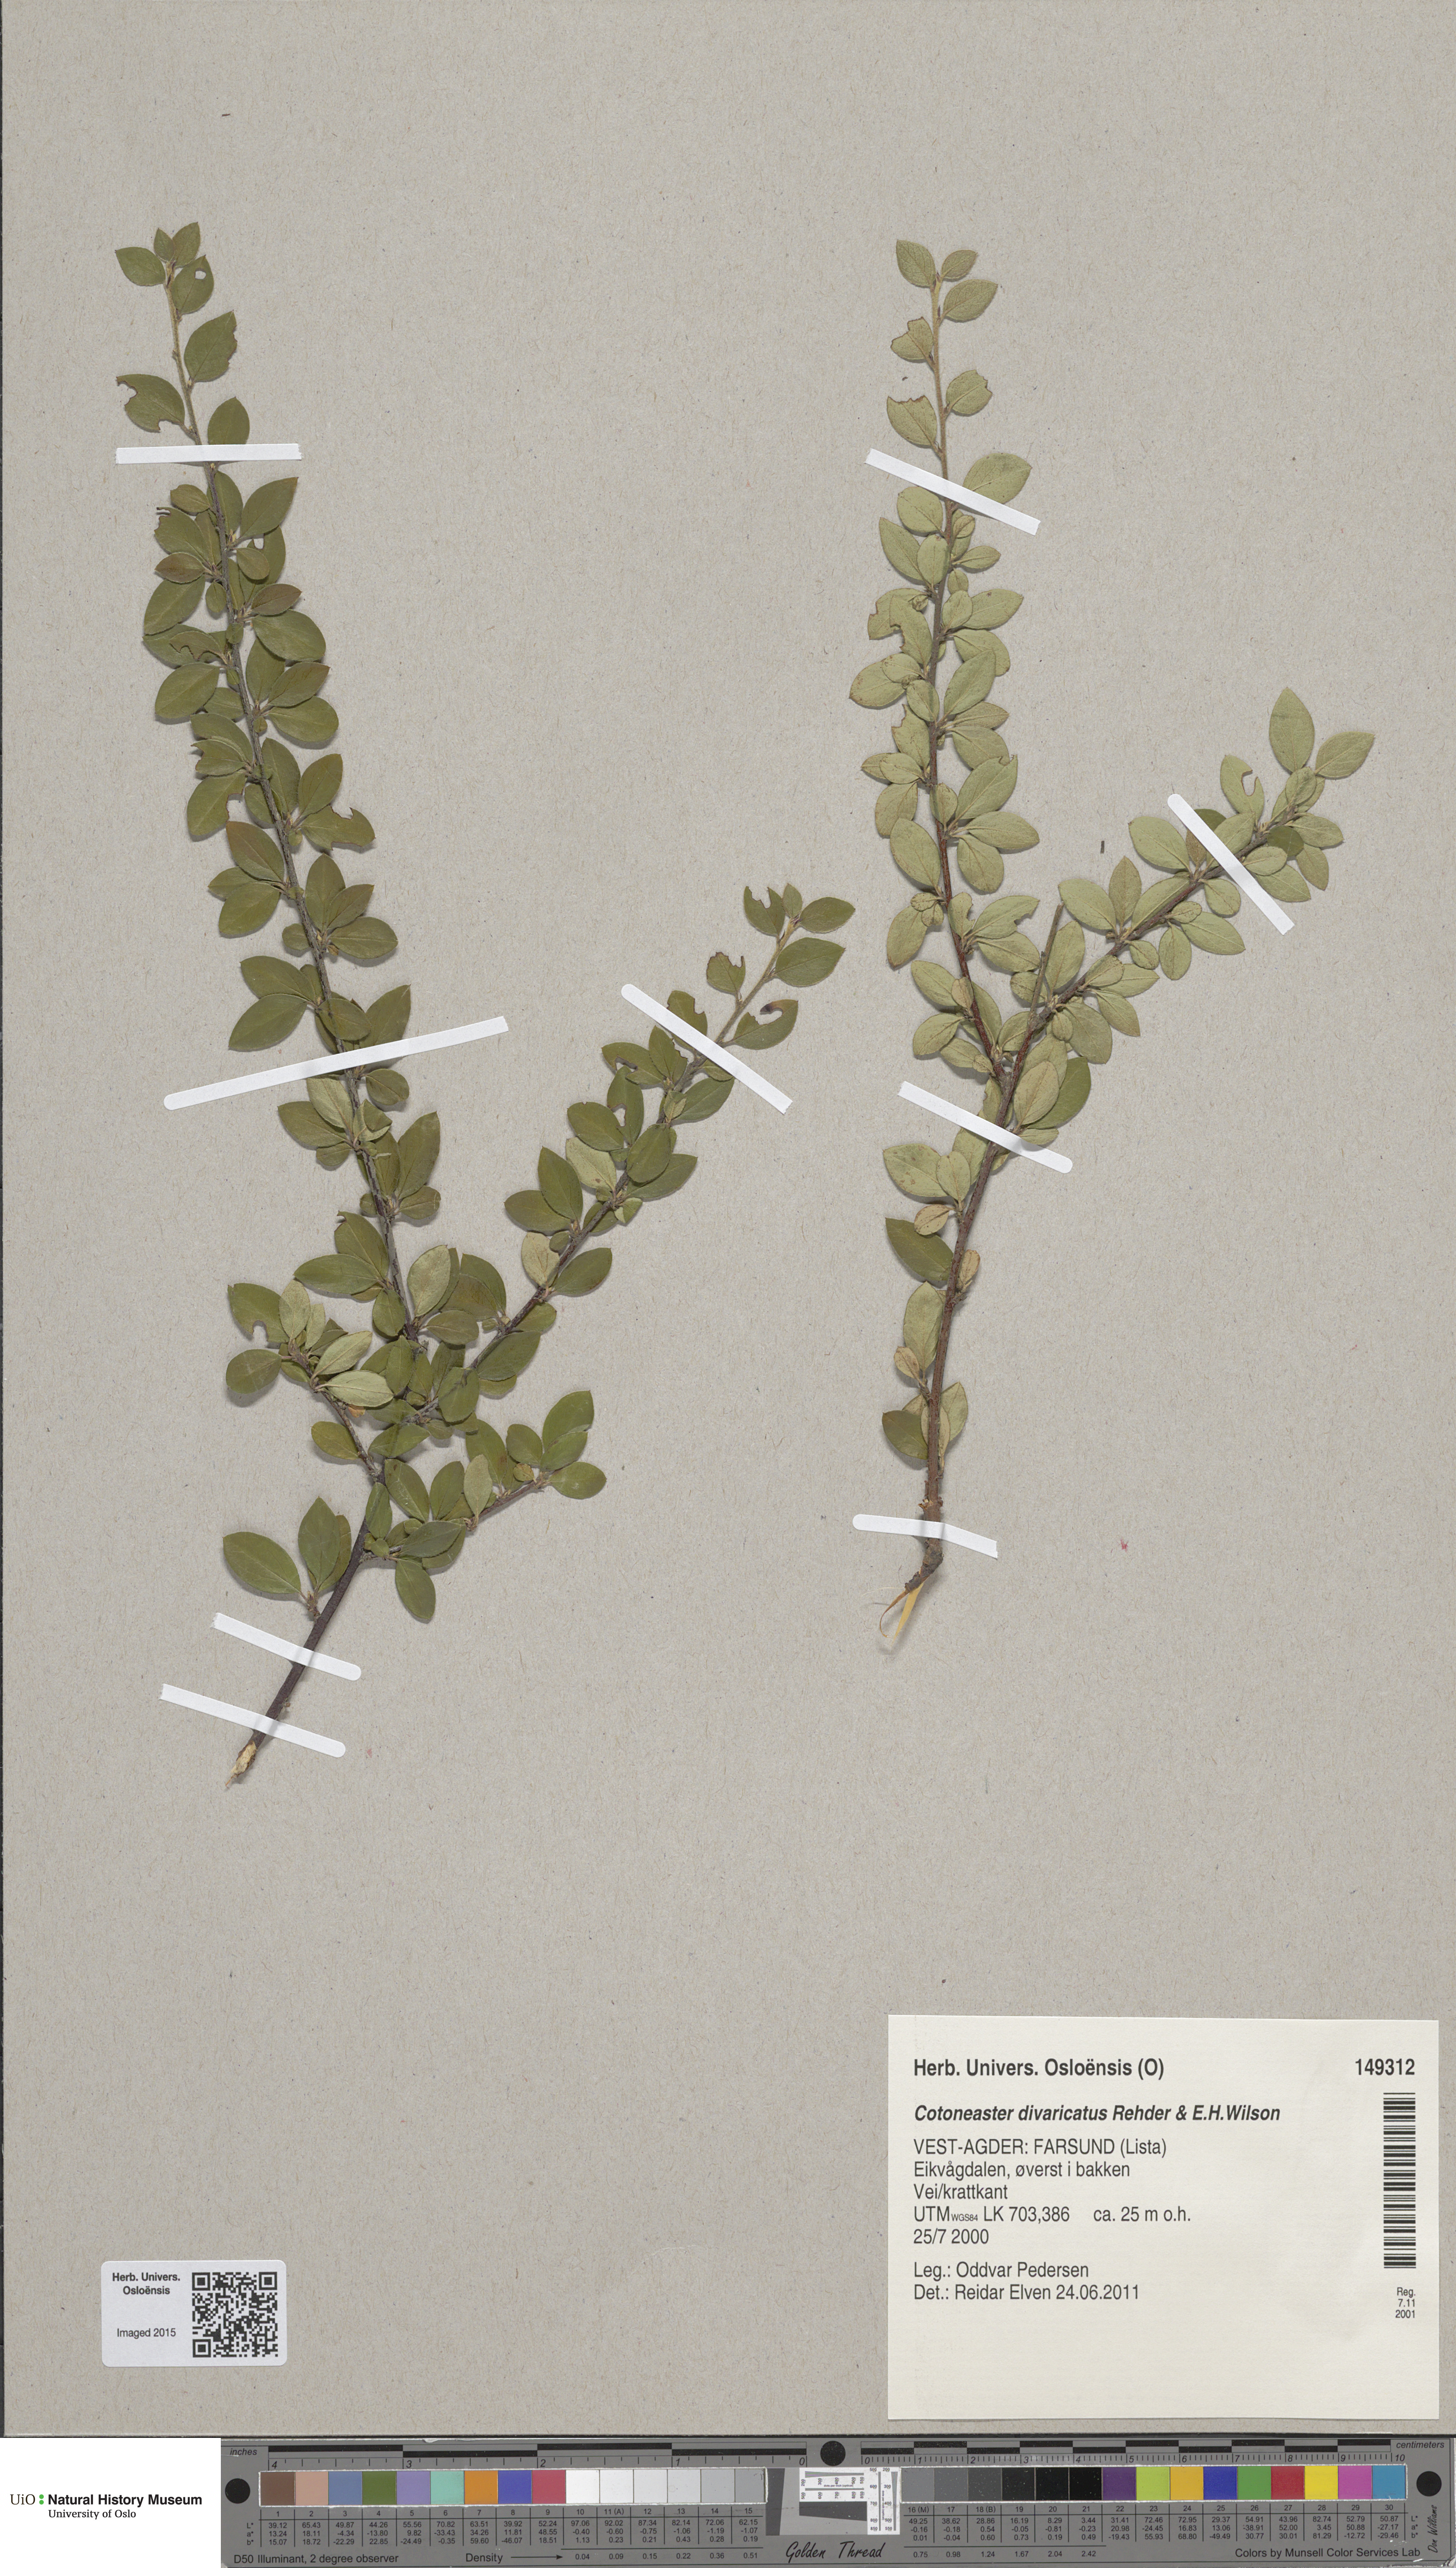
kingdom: Plantae
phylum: Tracheophyta
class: Magnoliopsida
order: Rosales
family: Rosaceae
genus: Cotoneaster
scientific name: Cotoneaster divaricatus
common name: Spreading cotoneaster
